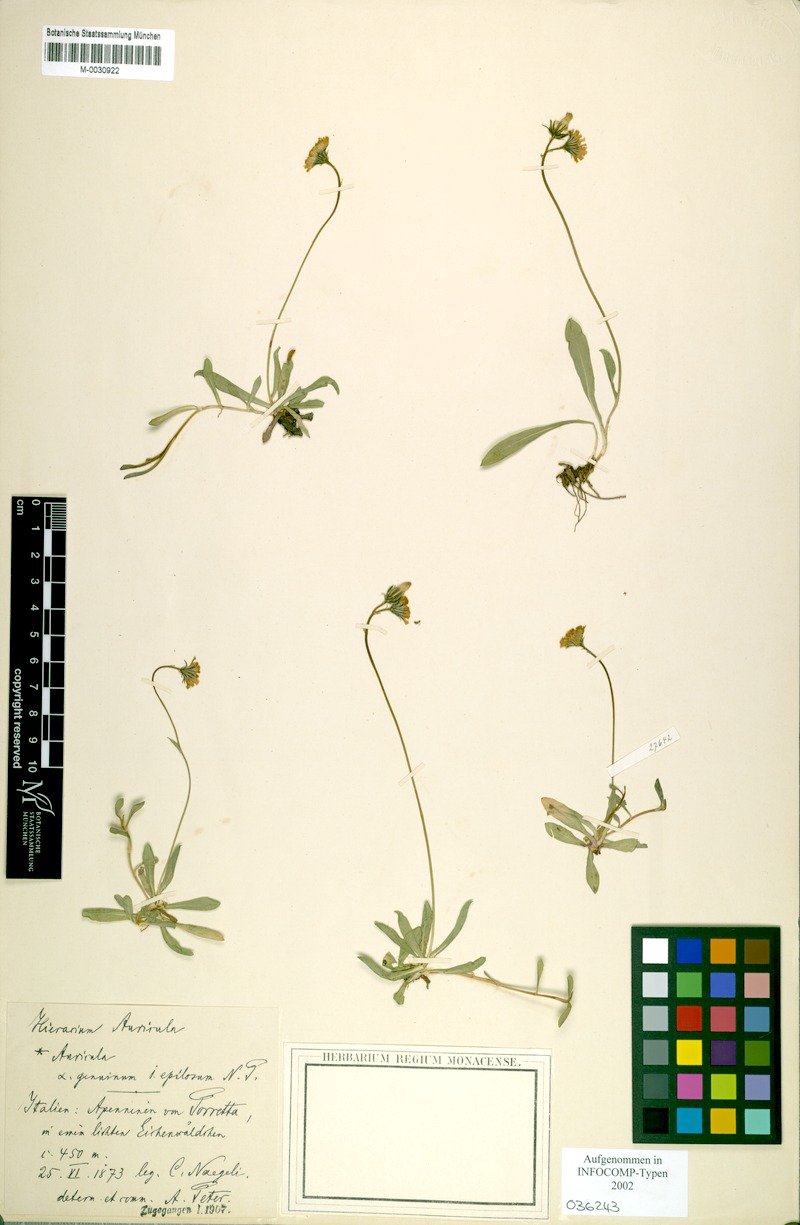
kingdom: Plantae
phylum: Tracheophyta
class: Magnoliopsida
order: Asterales
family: Asteraceae
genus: Pilosella
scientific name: Pilosella lactucella
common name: Glaucous fox-and-cubs
